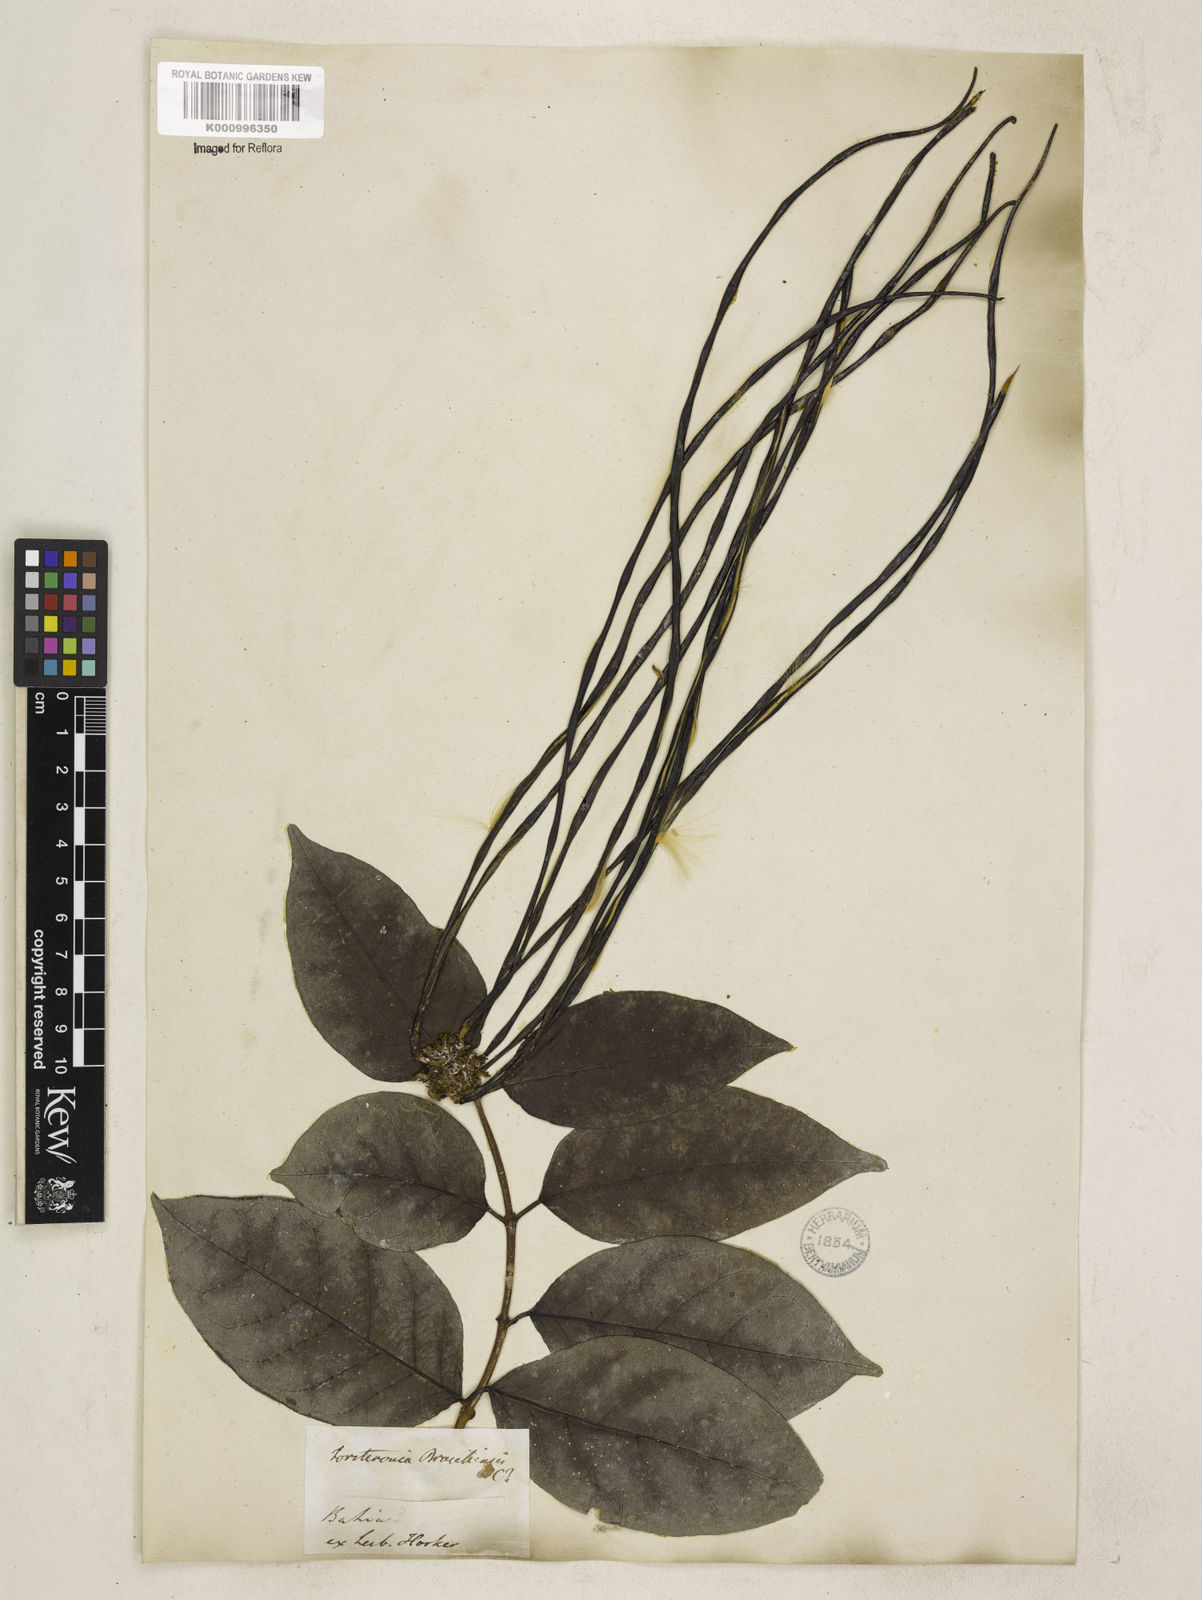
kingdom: Plantae
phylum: Tracheophyta
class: Magnoliopsida
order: Gentianales
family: Apocynaceae
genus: Forsteronia
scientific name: Forsteronia leptocarpa
